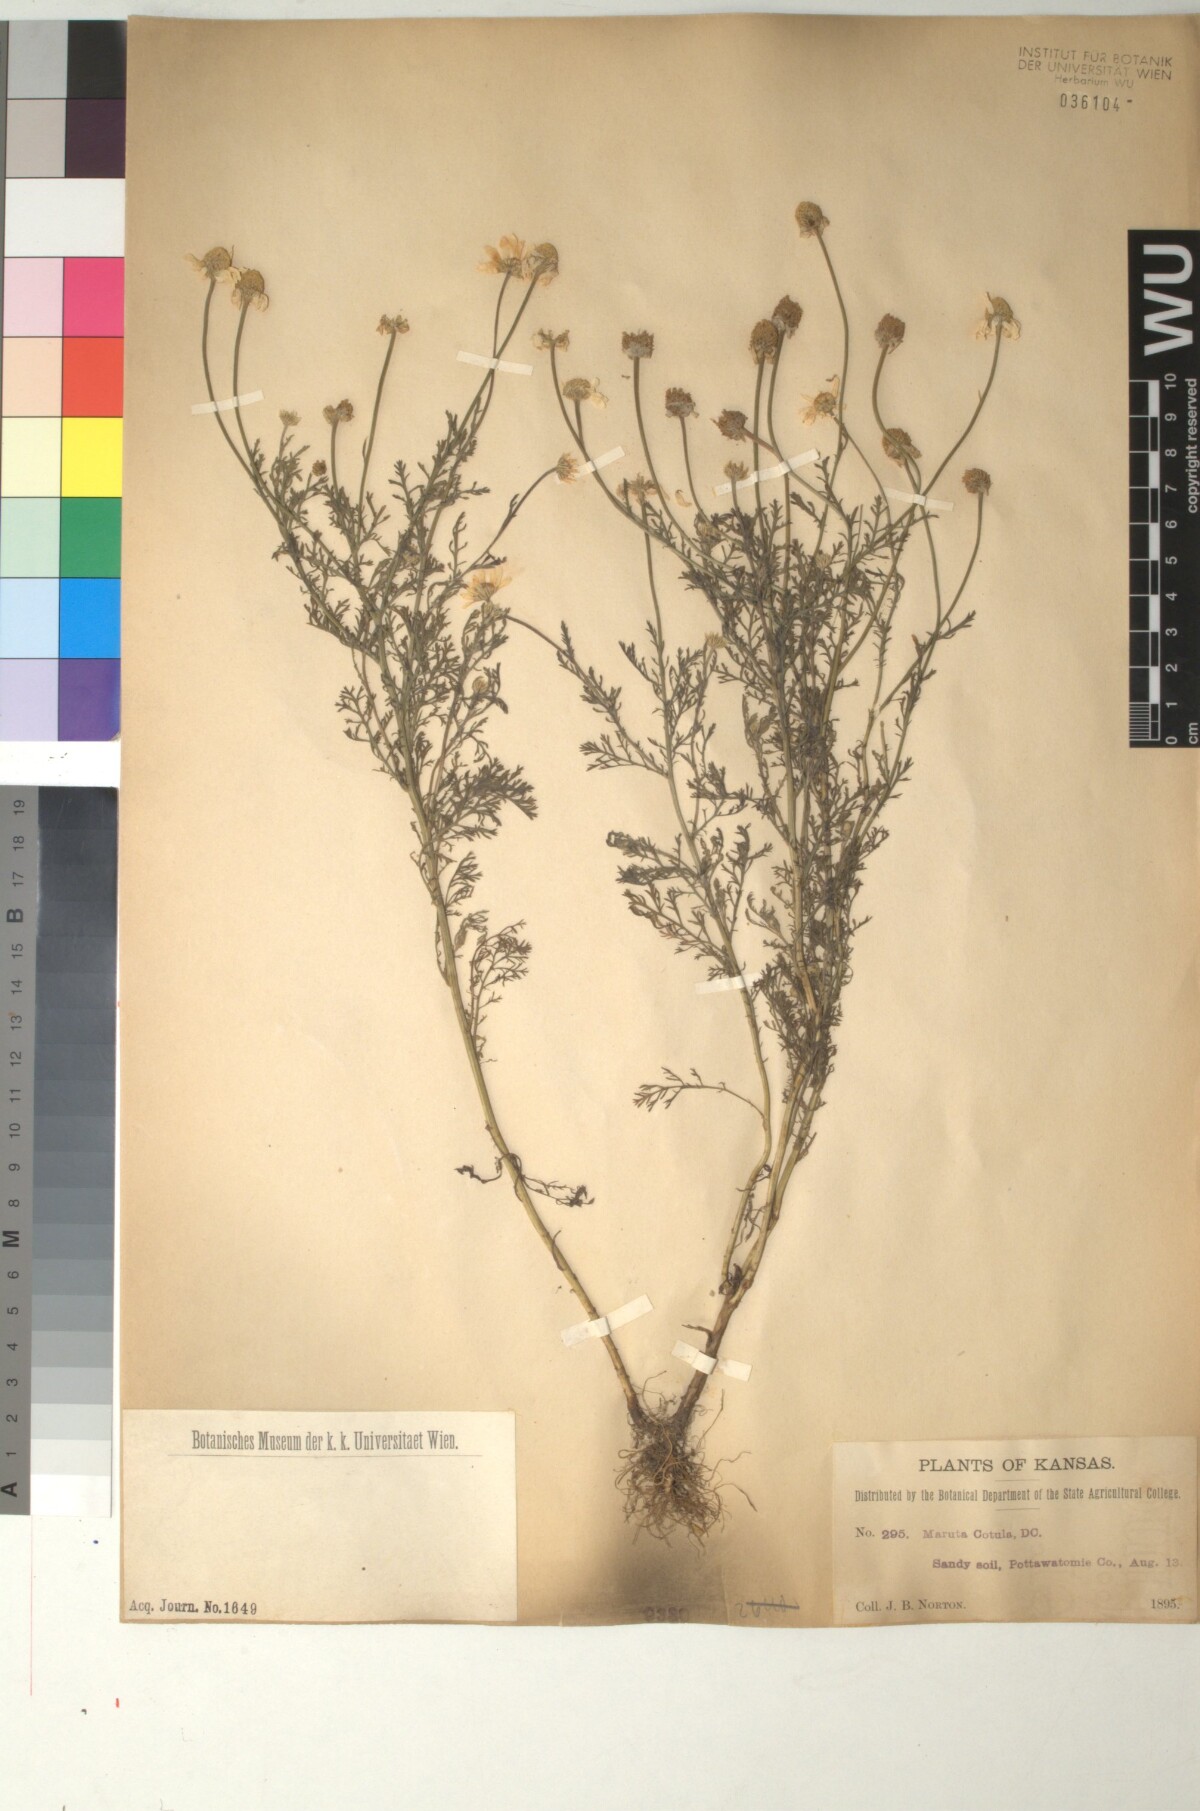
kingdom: Plantae
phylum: Tracheophyta
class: Magnoliopsida
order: Asterales
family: Asteraceae
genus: Anthemis
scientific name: Anthemis cotula
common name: Stinking chamomile
